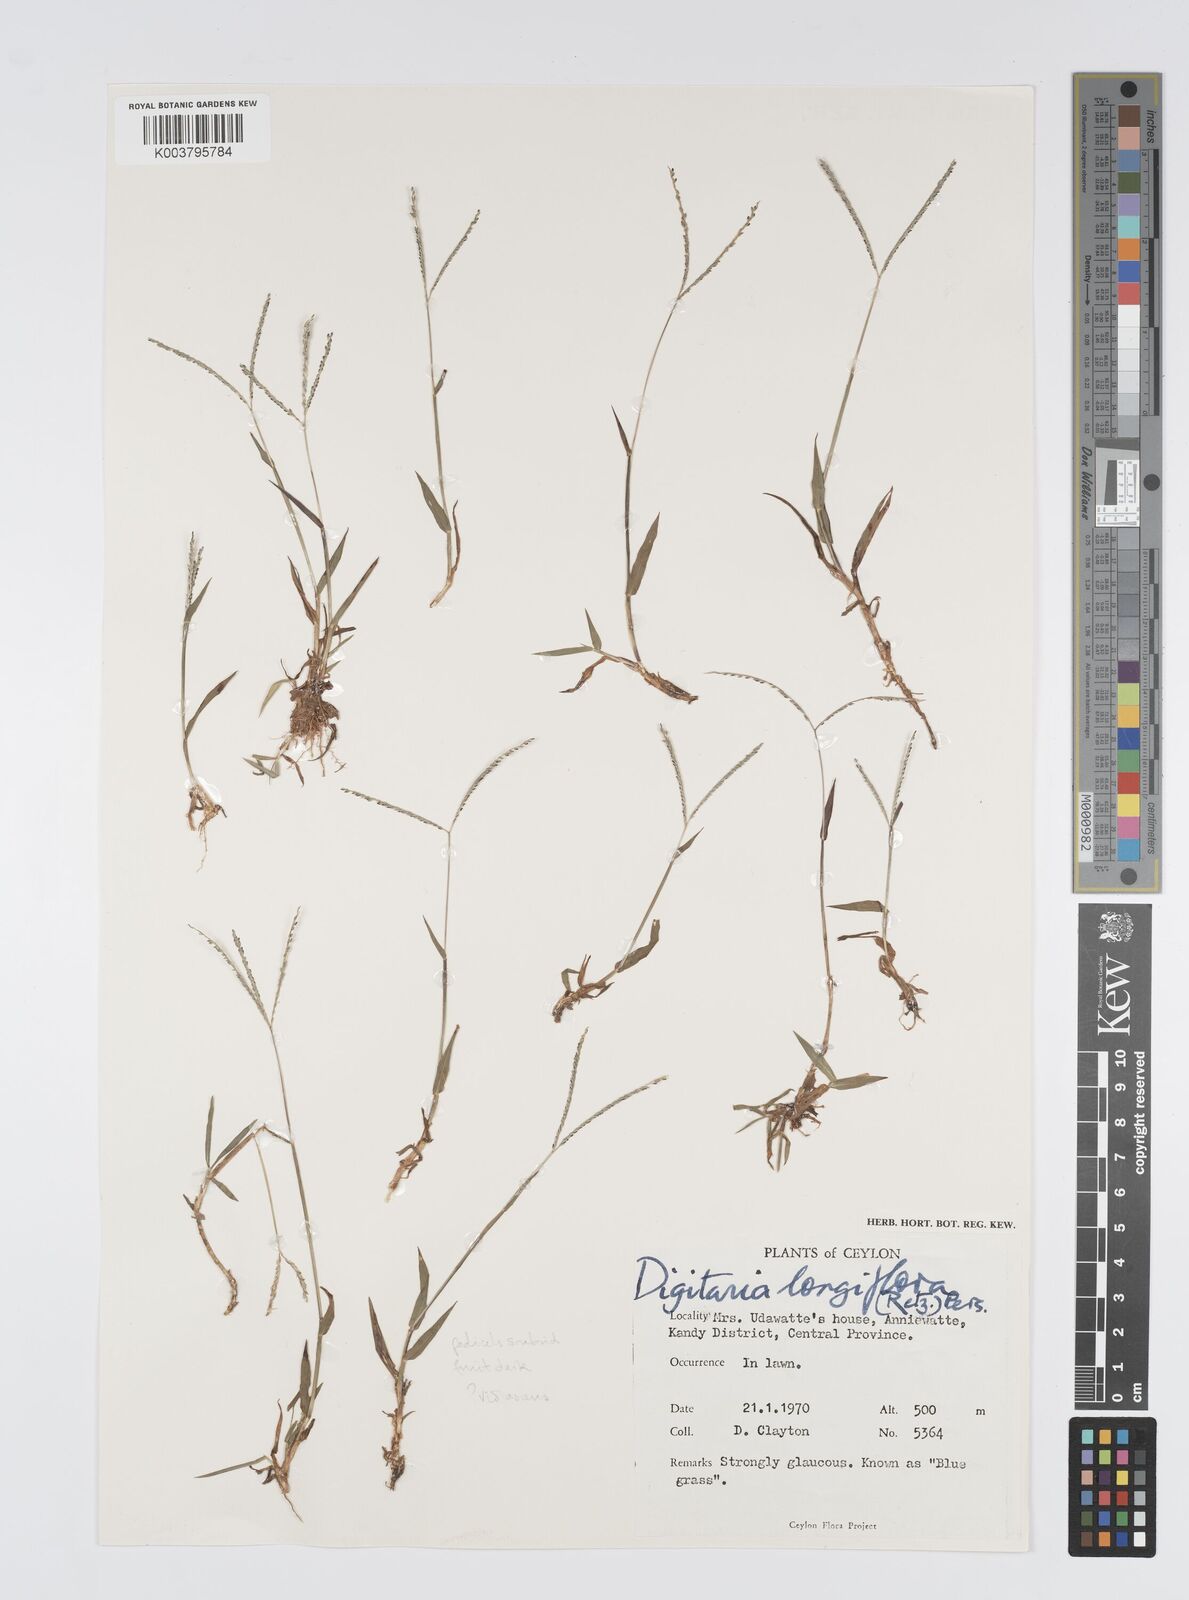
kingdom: Plantae
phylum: Tracheophyta
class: Liliopsida
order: Poales
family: Poaceae
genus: Digitaria
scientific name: Digitaria violascens
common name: Violet crabgrass
